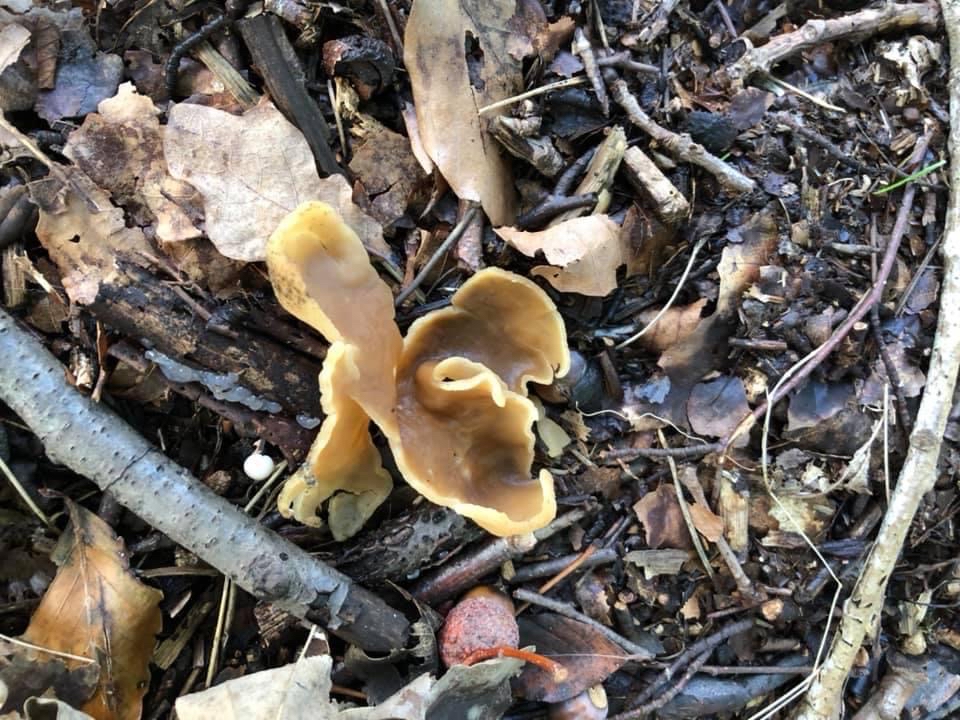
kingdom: Fungi
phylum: Ascomycota
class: Pezizomycetes
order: Pezizales
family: Pezizaceae
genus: Peziza
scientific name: Peziza
